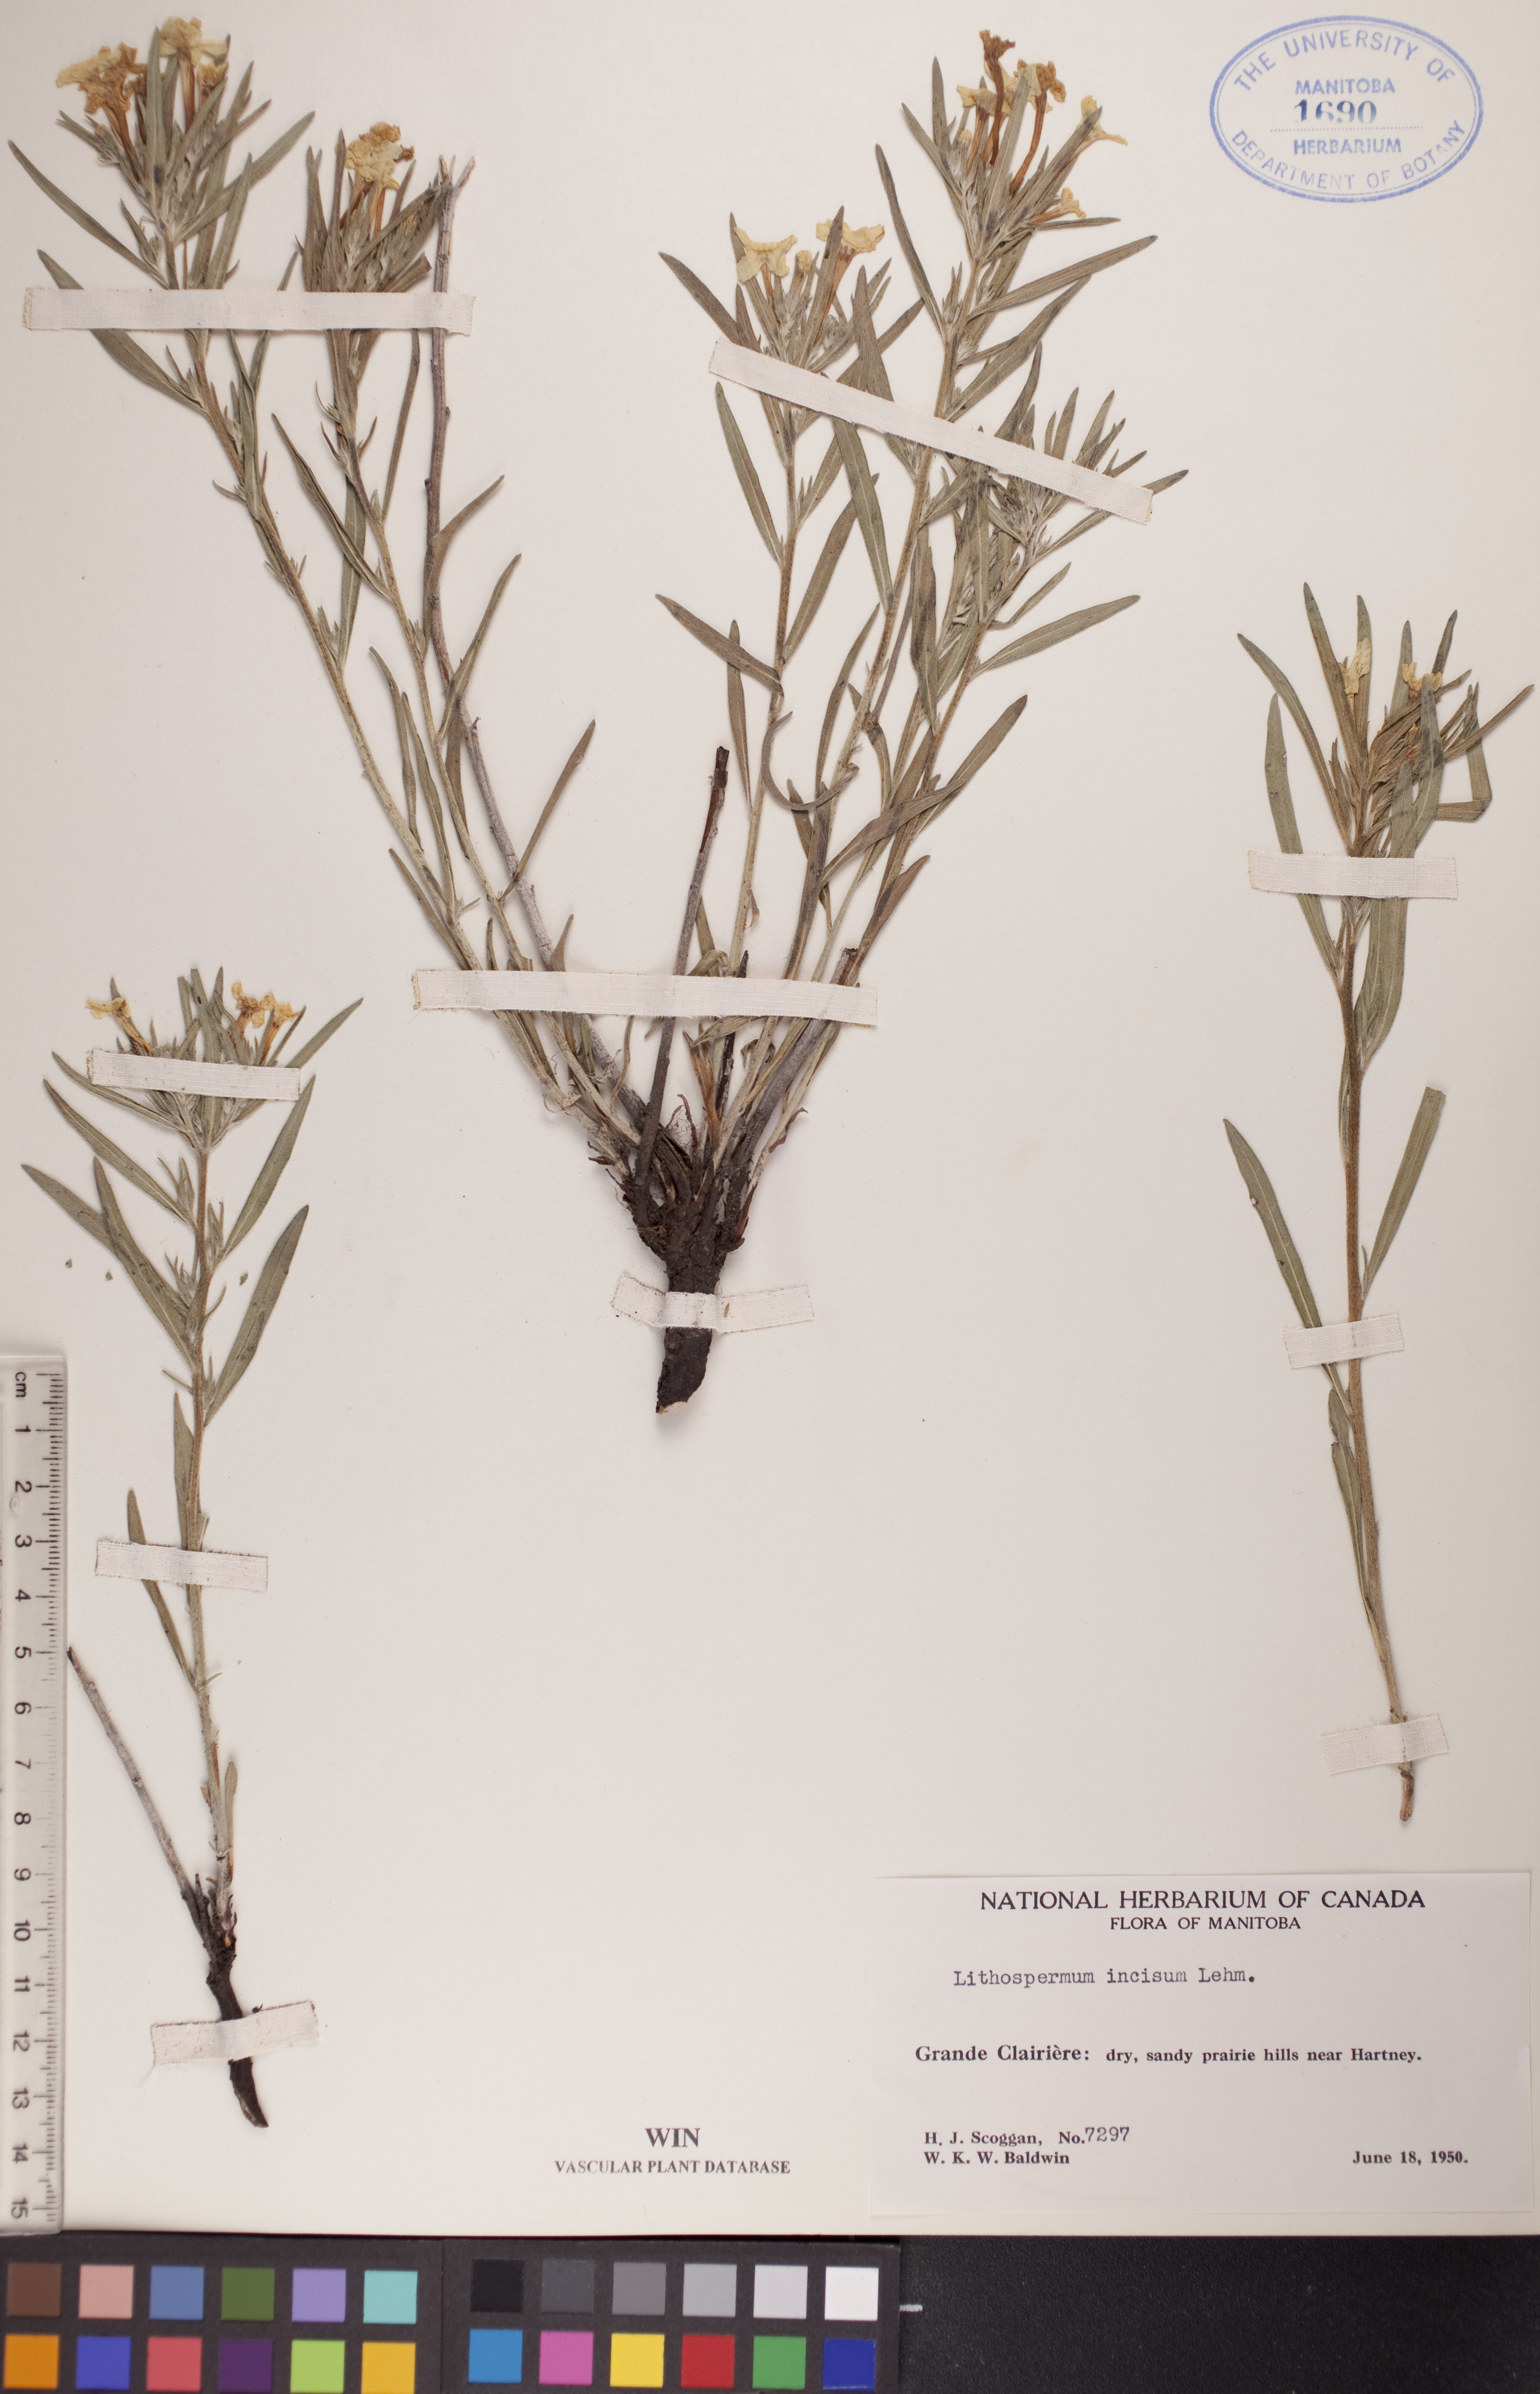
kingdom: Plantae
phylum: Tracheophyta
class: Magnoliopsida
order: Boraginales
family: Boraginaceae
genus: Lithospermum
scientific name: Lithospermum incisum
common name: Fringed gromwell
